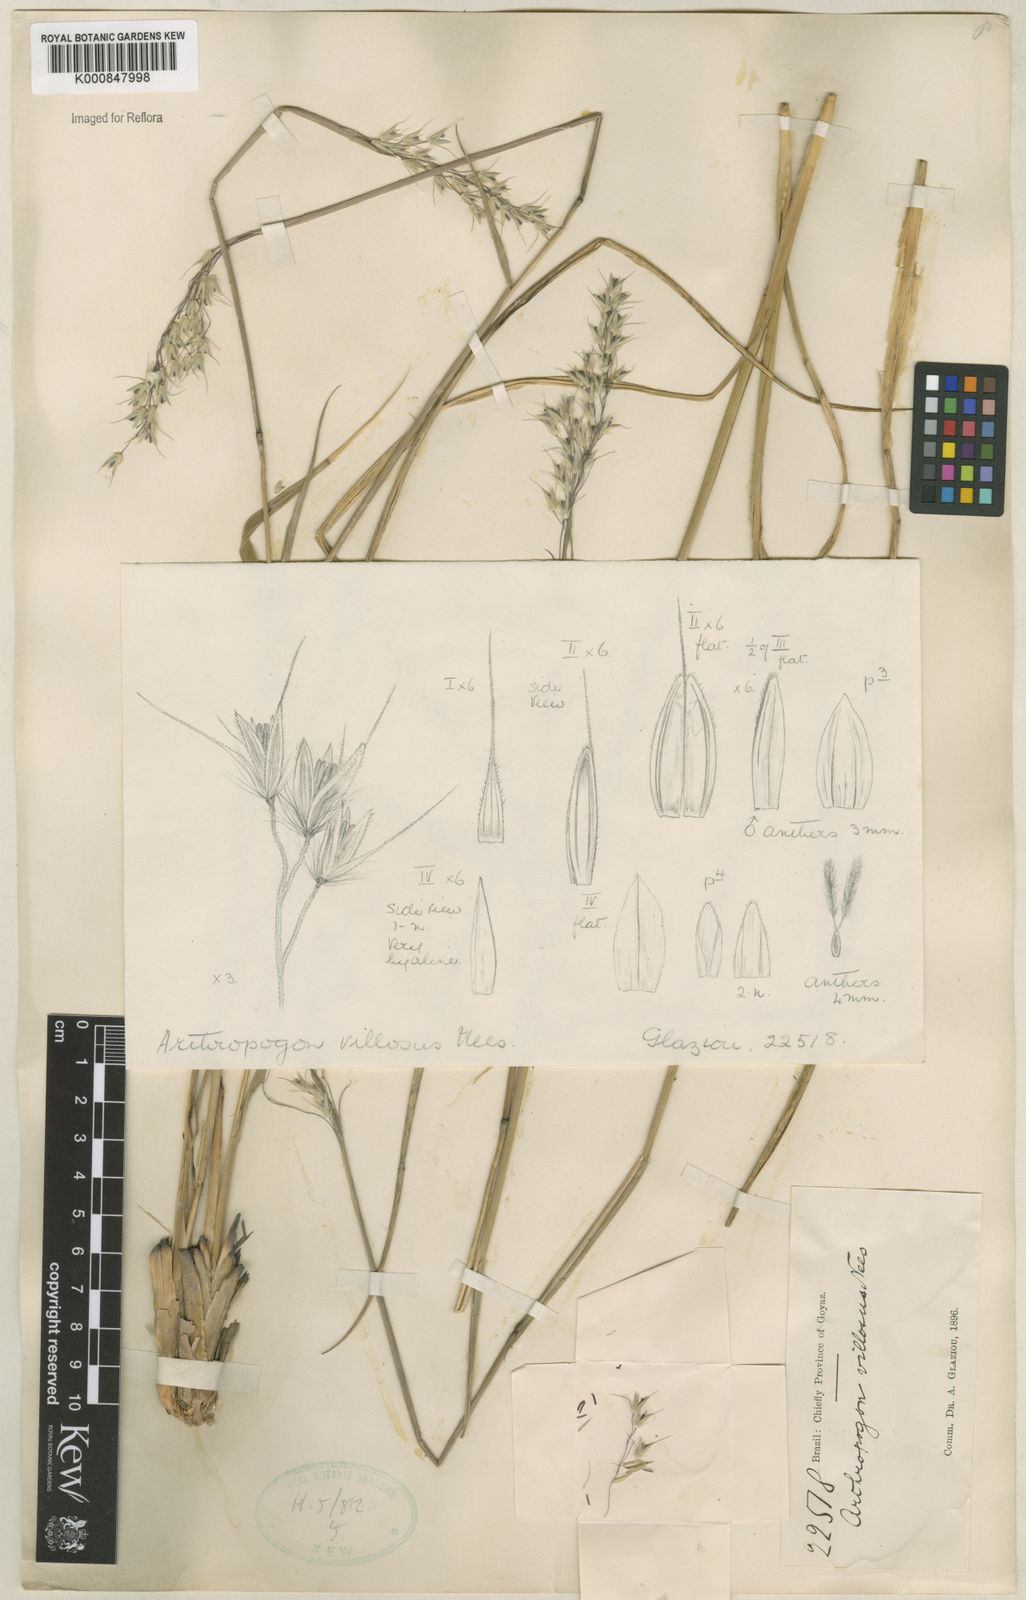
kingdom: Plantae
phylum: Tracheophyta
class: Liliopsida
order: Poales
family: Poaceae
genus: Arthropogon
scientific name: Arthropogon villosus
